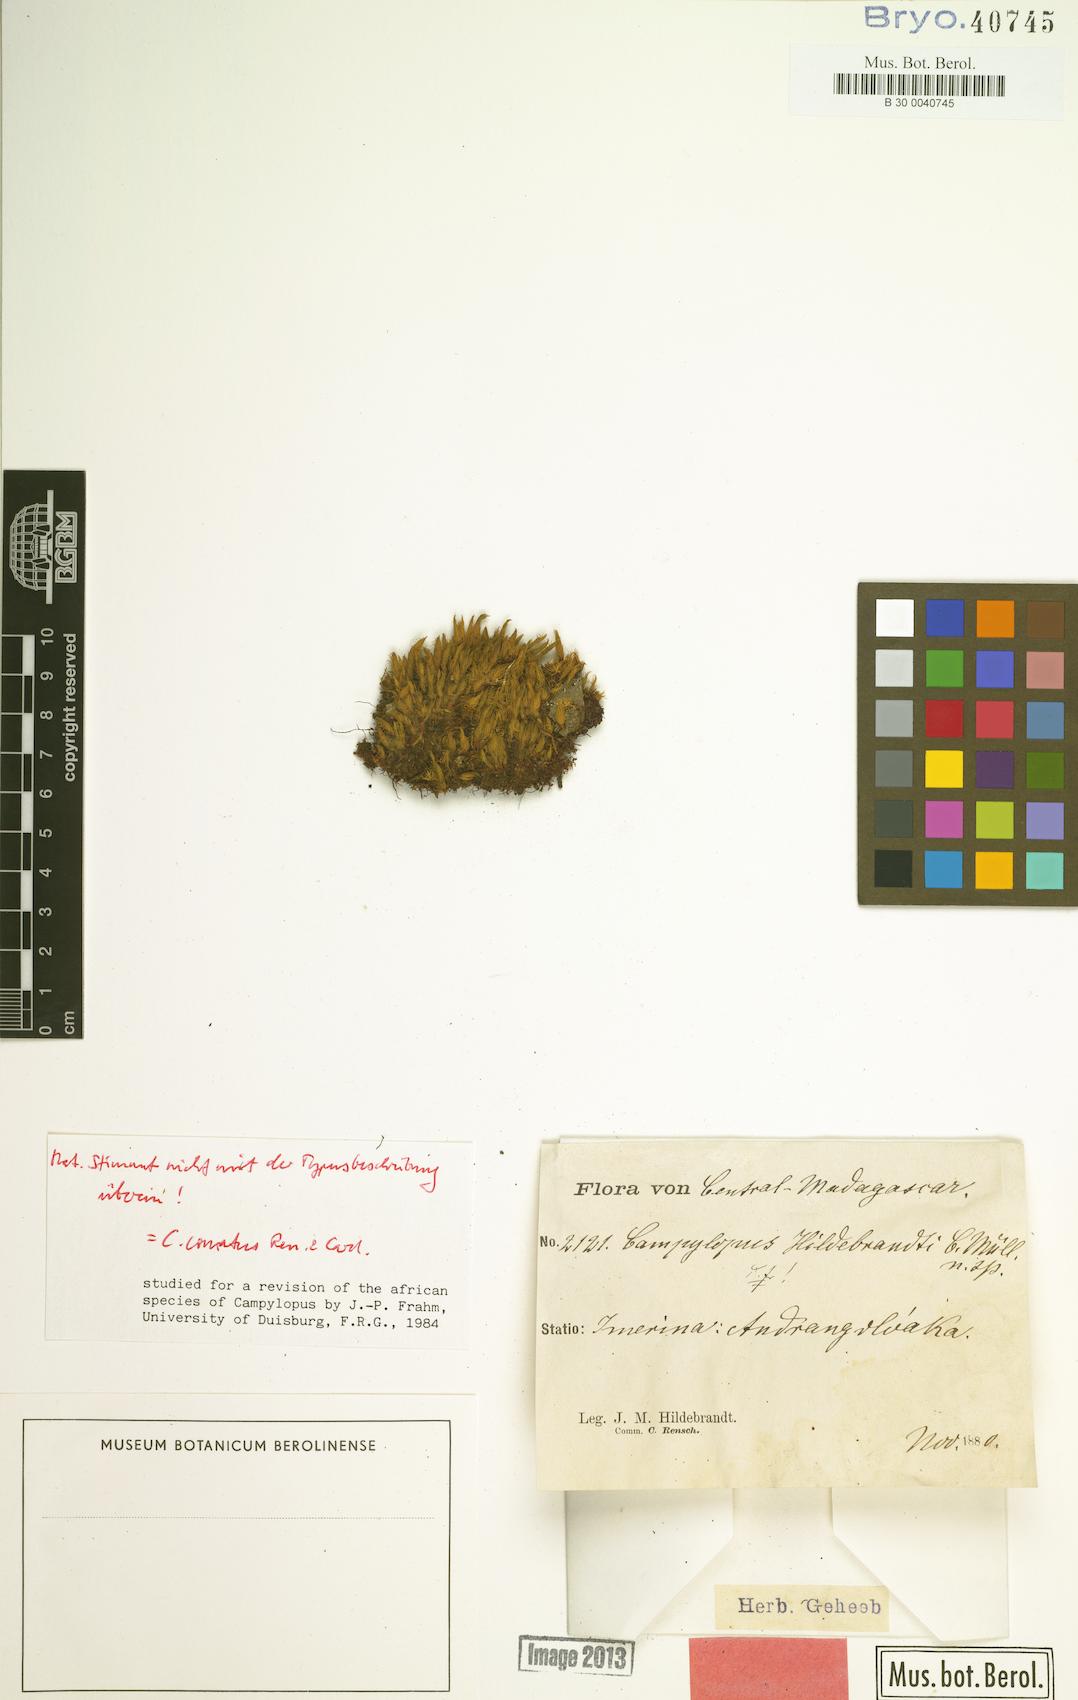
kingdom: Plantae
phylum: Bryophyta
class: Bryopsida
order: Dicranales
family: Leucobryaceae
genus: Campylopus
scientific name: Campylopus hildebrandtii
